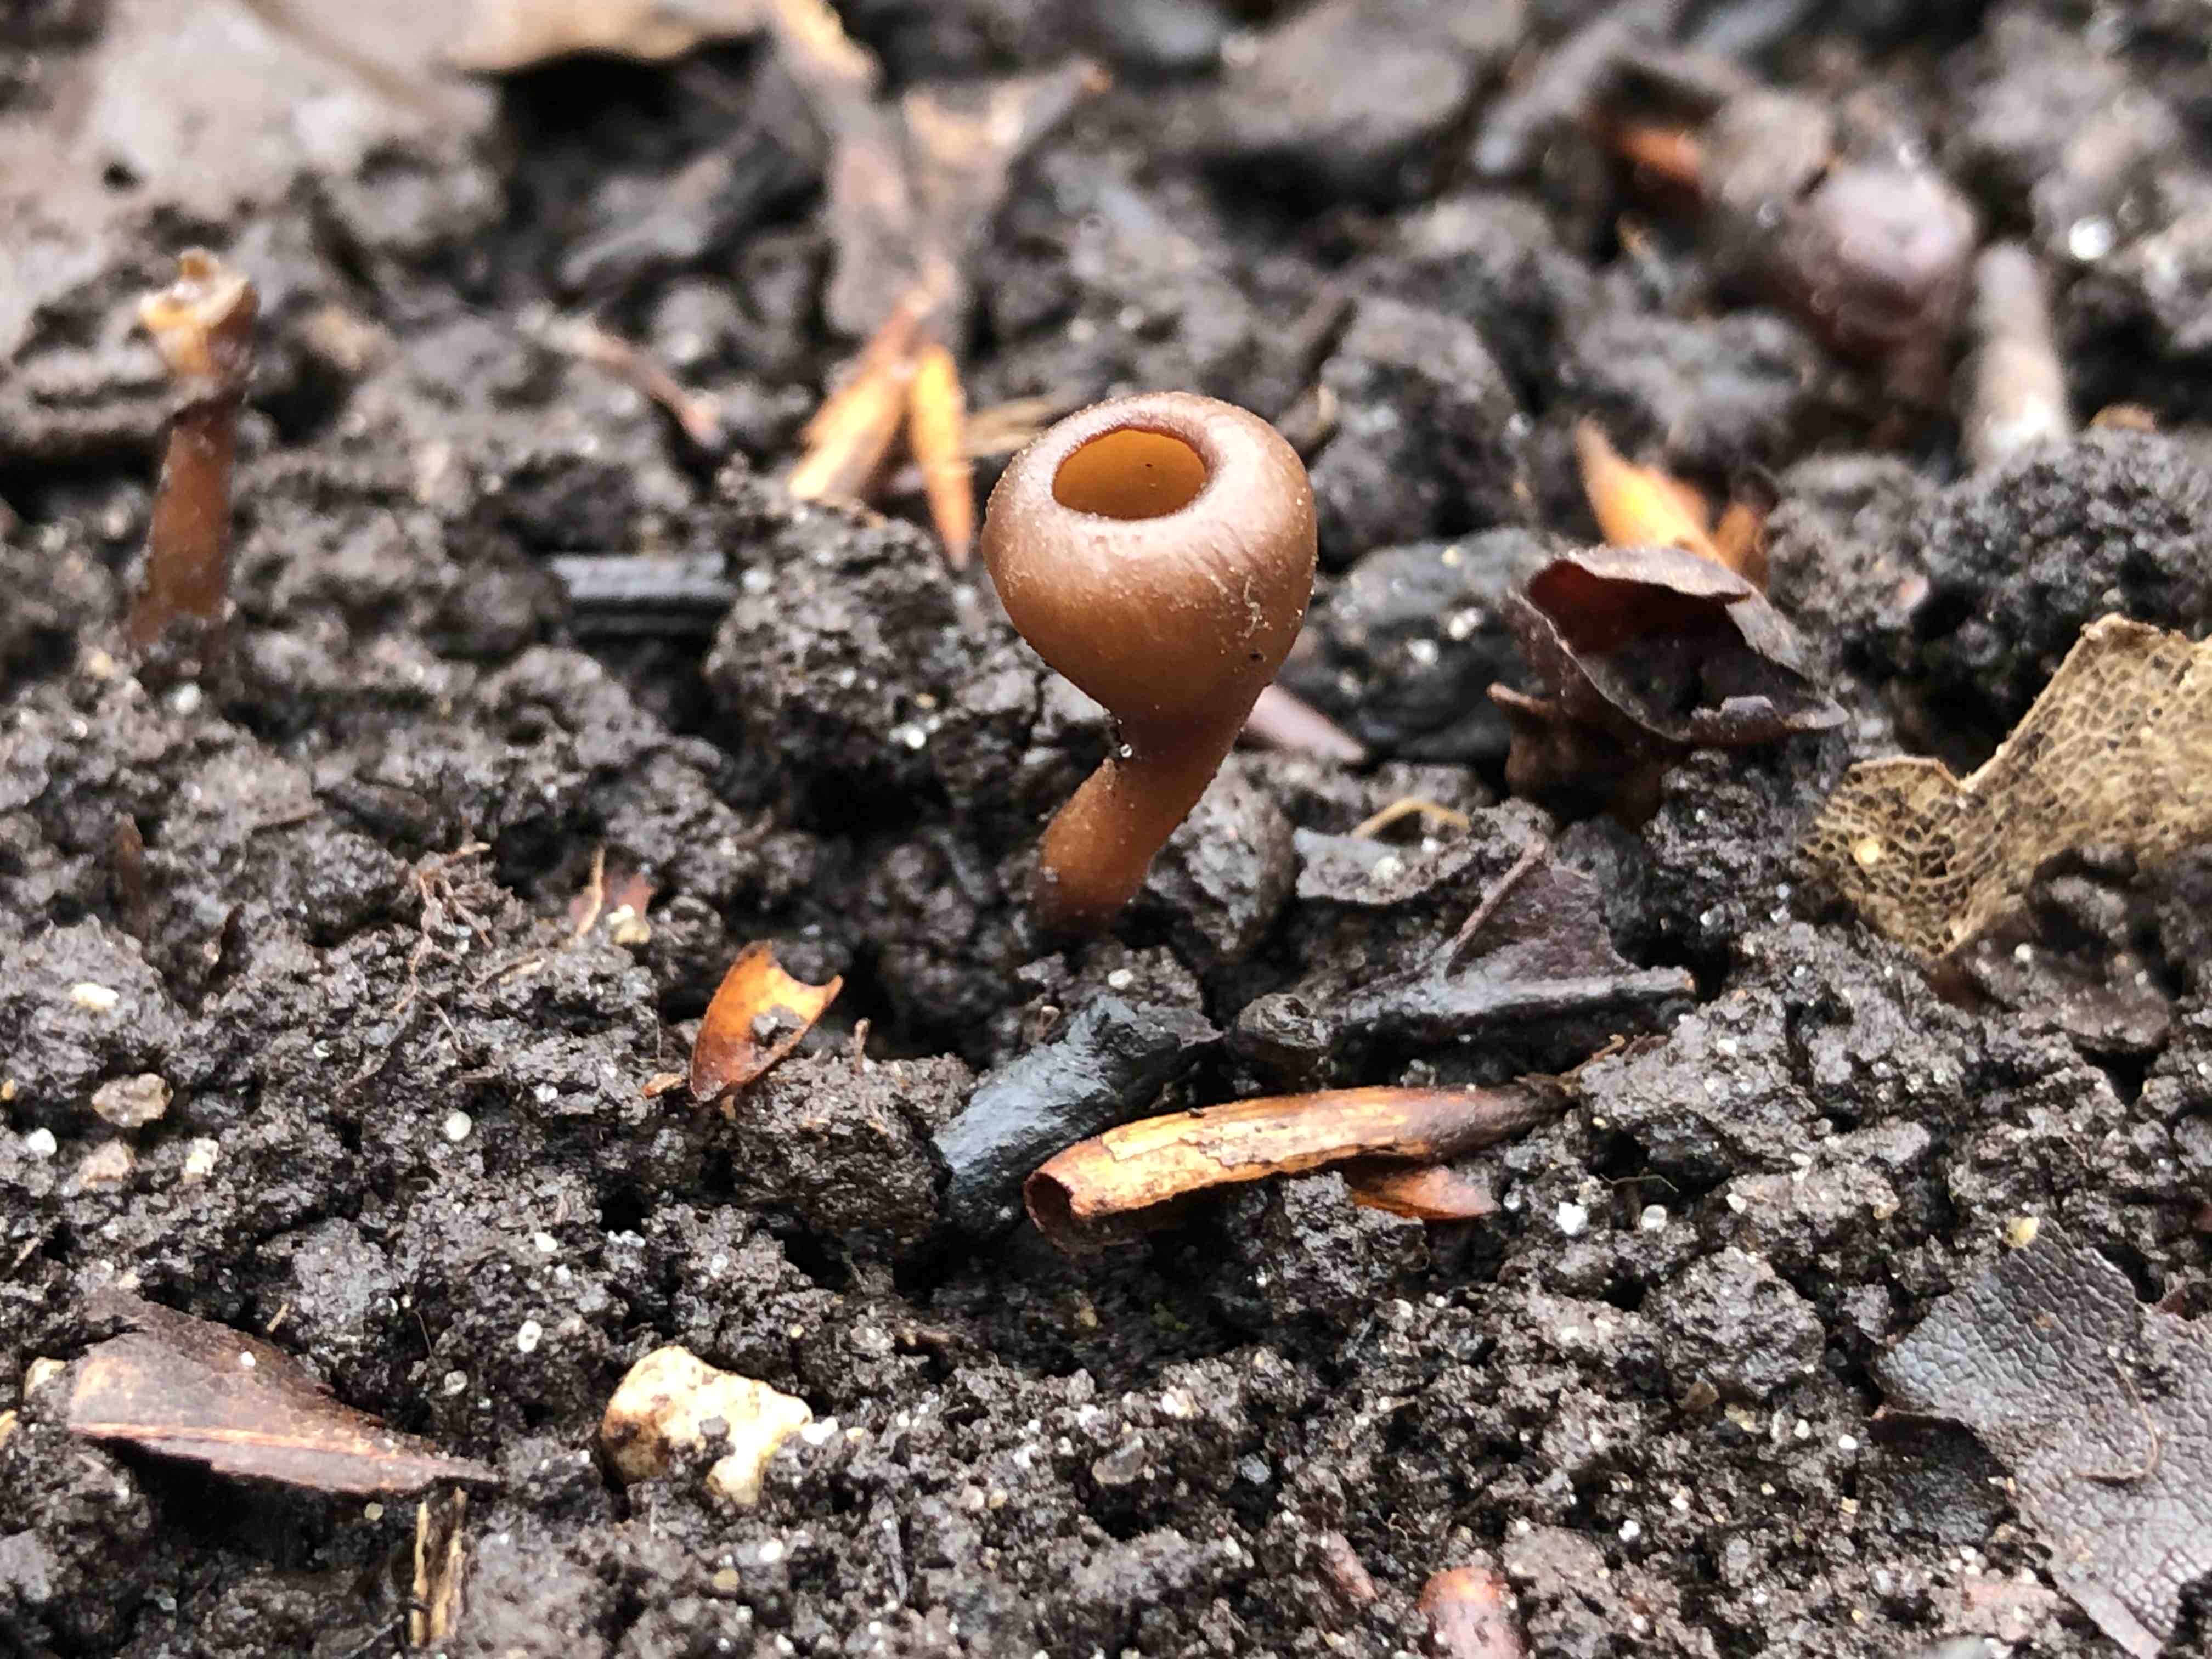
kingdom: Fungi
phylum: Ascomycota
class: Leotiomycetes
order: Helotiales
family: Sclerotiniaceae
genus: Dumontinia
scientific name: Dumontinia tuberosa
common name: anemone-knoldskive
